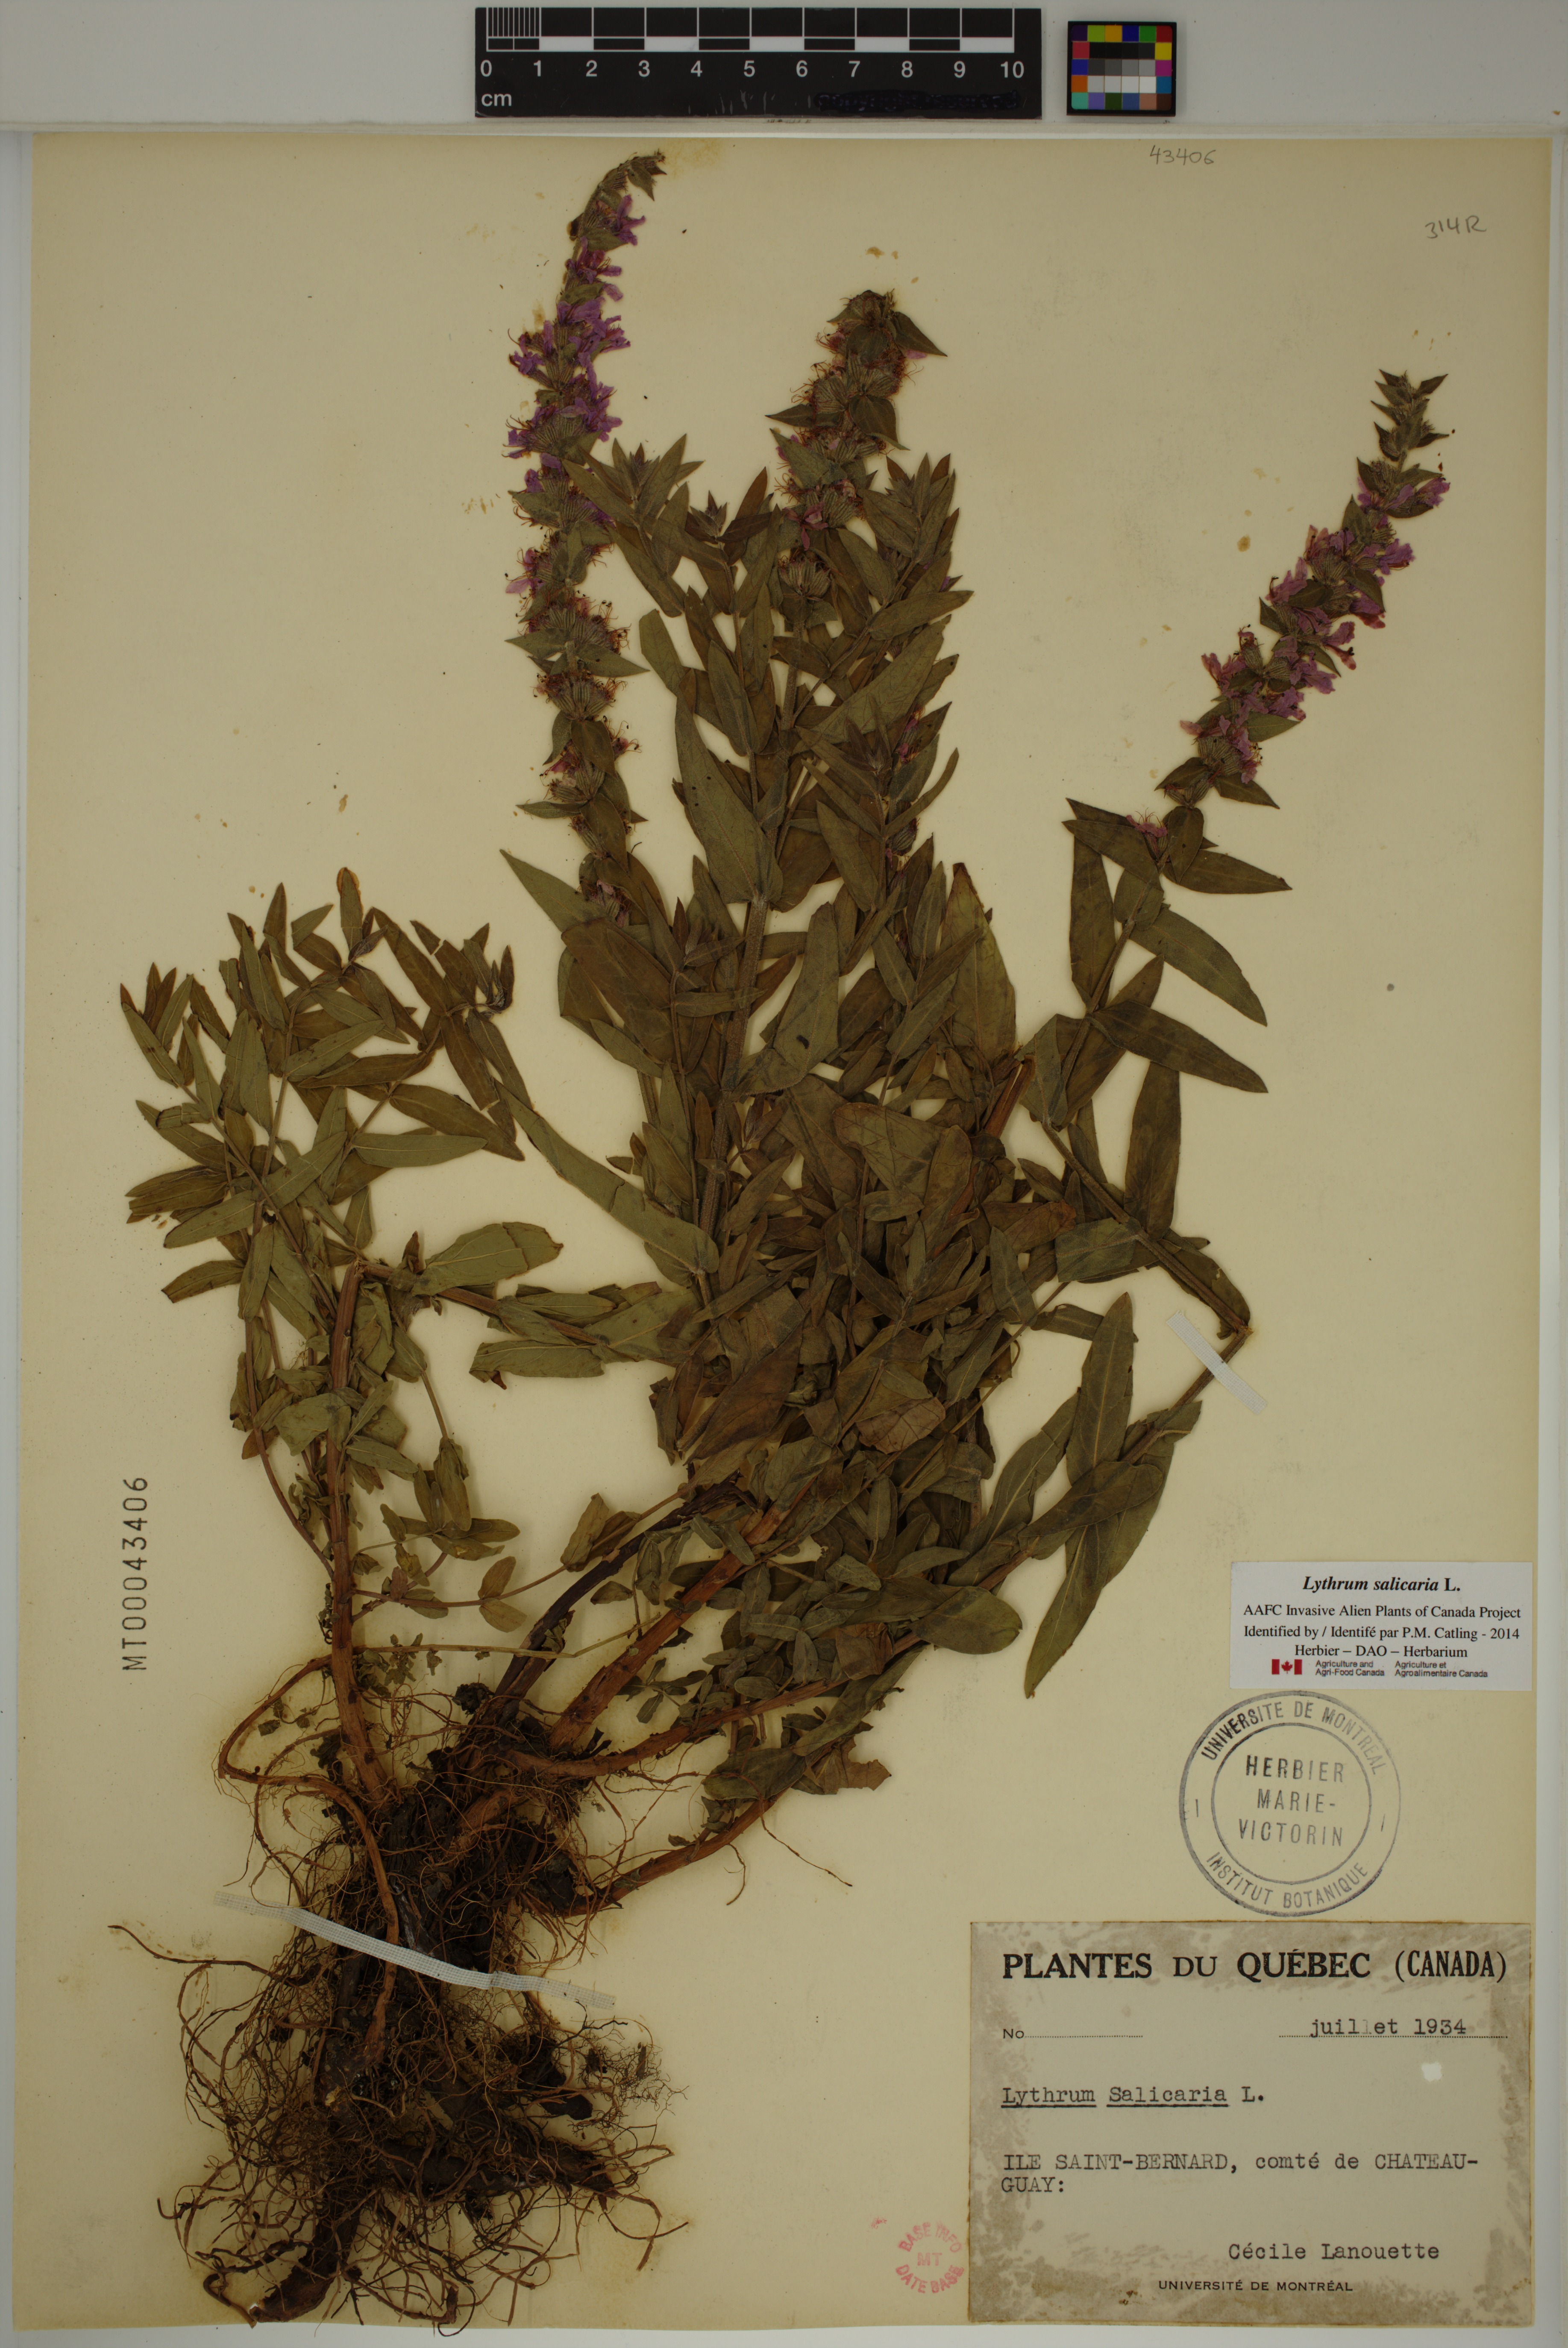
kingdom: Plantae
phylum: Tracheophyta
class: Magnoliopsida
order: Myrtales
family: Lythraceae
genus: Lythrum
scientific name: Lythrum salicaria
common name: Purple loosestrife
